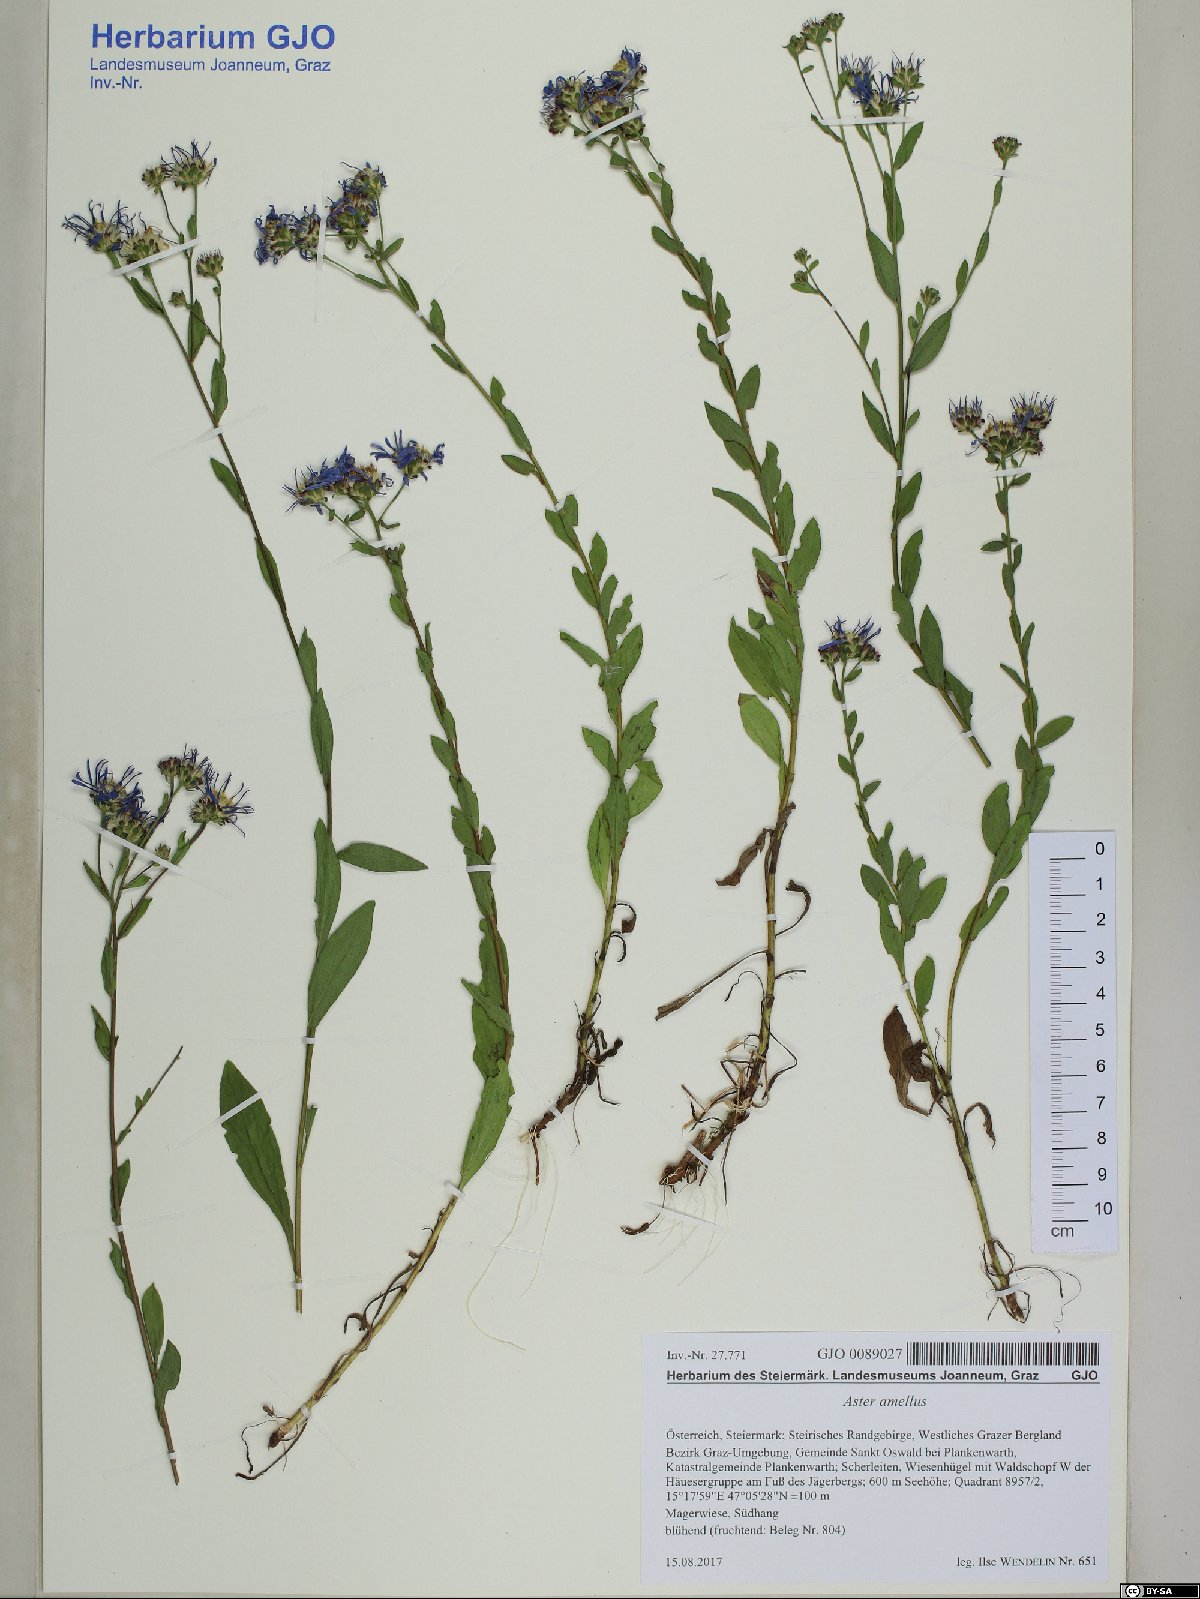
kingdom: Plantae
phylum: Tracheophyta
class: Magnoliopsida
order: Asterales
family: Asteraceae
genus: Aster
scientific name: Aster amellus
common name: European michaelmas daisy
